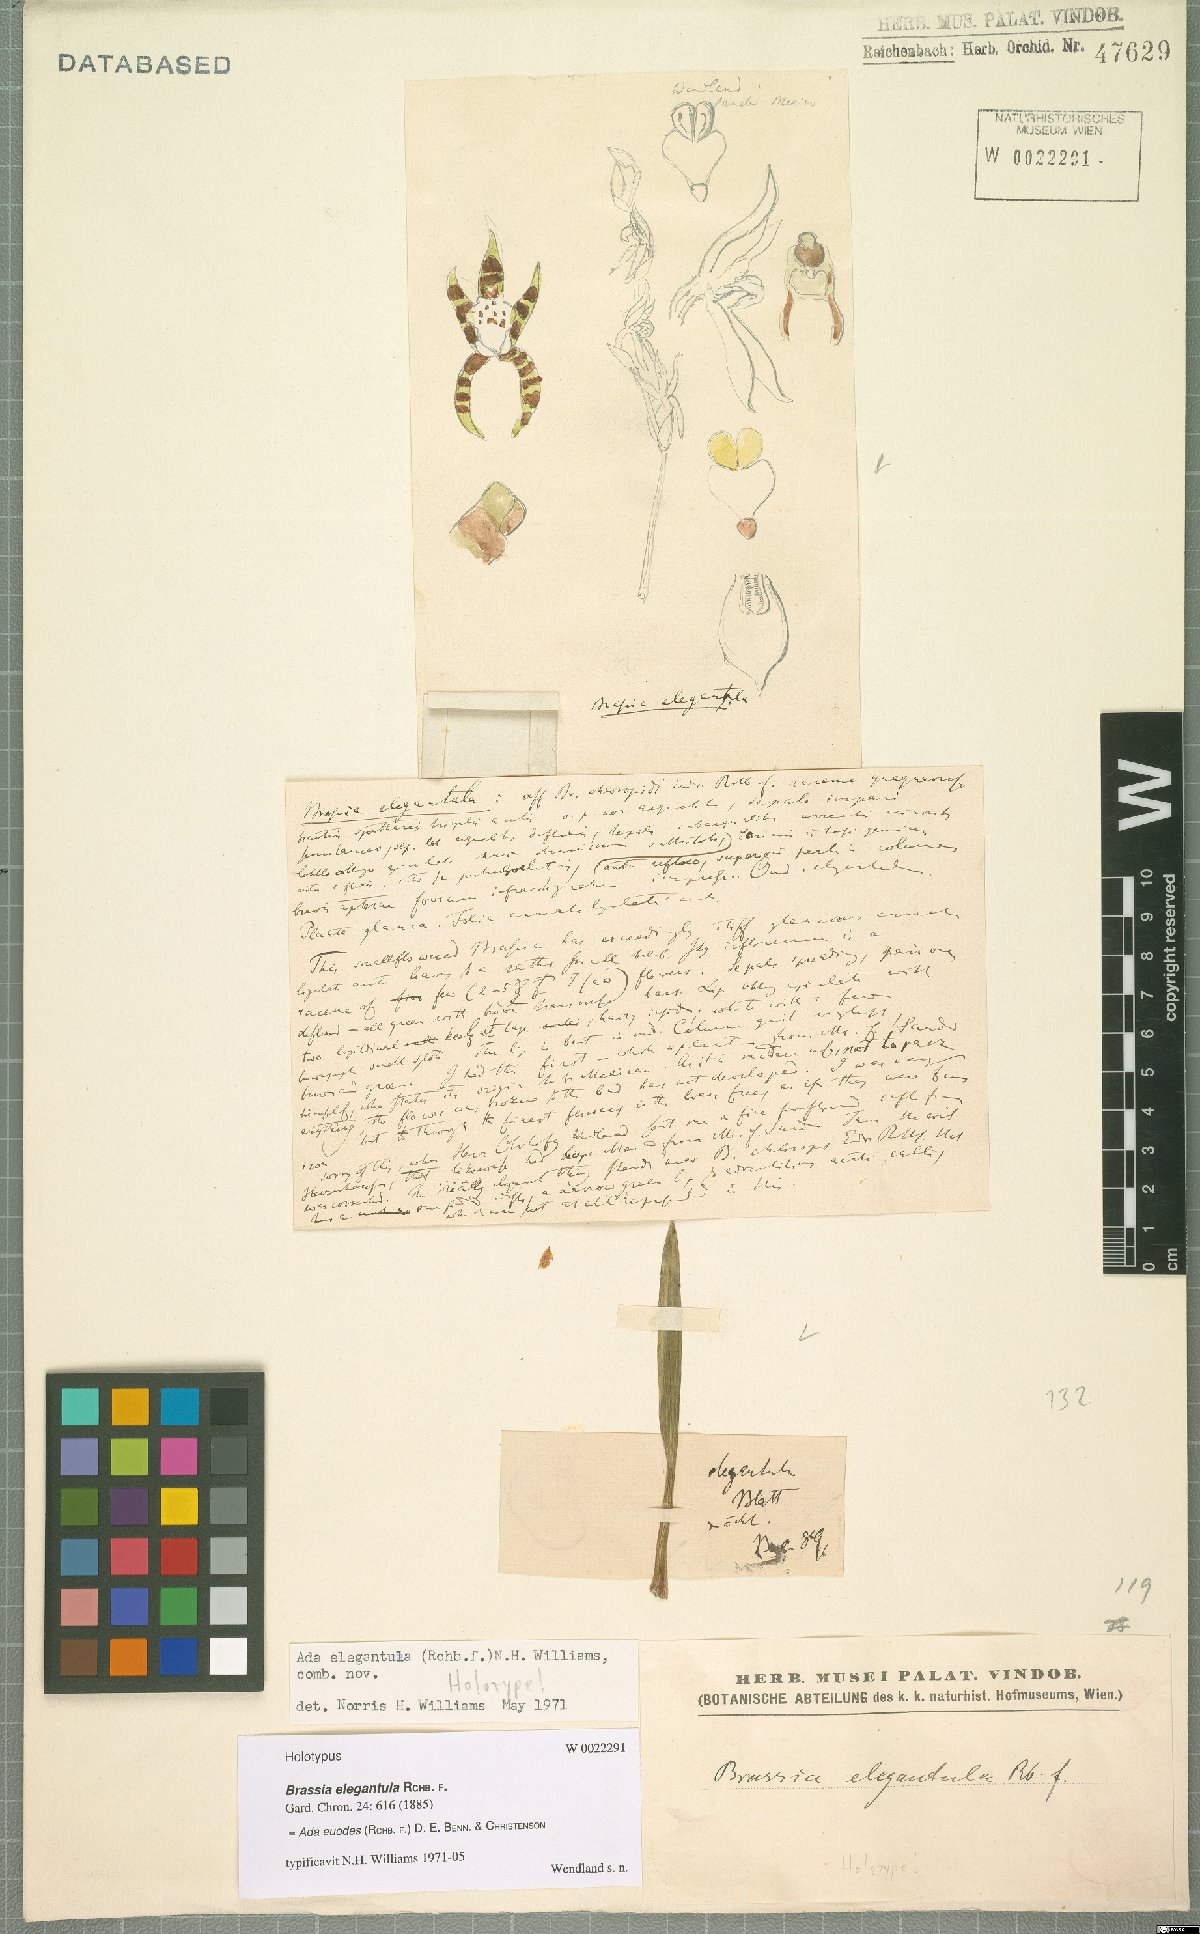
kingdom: Plantae
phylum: Tracheophyta
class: Liliopsida
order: Asparagales
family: Orchidaceae
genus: Brassia
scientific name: Brassia euodes
